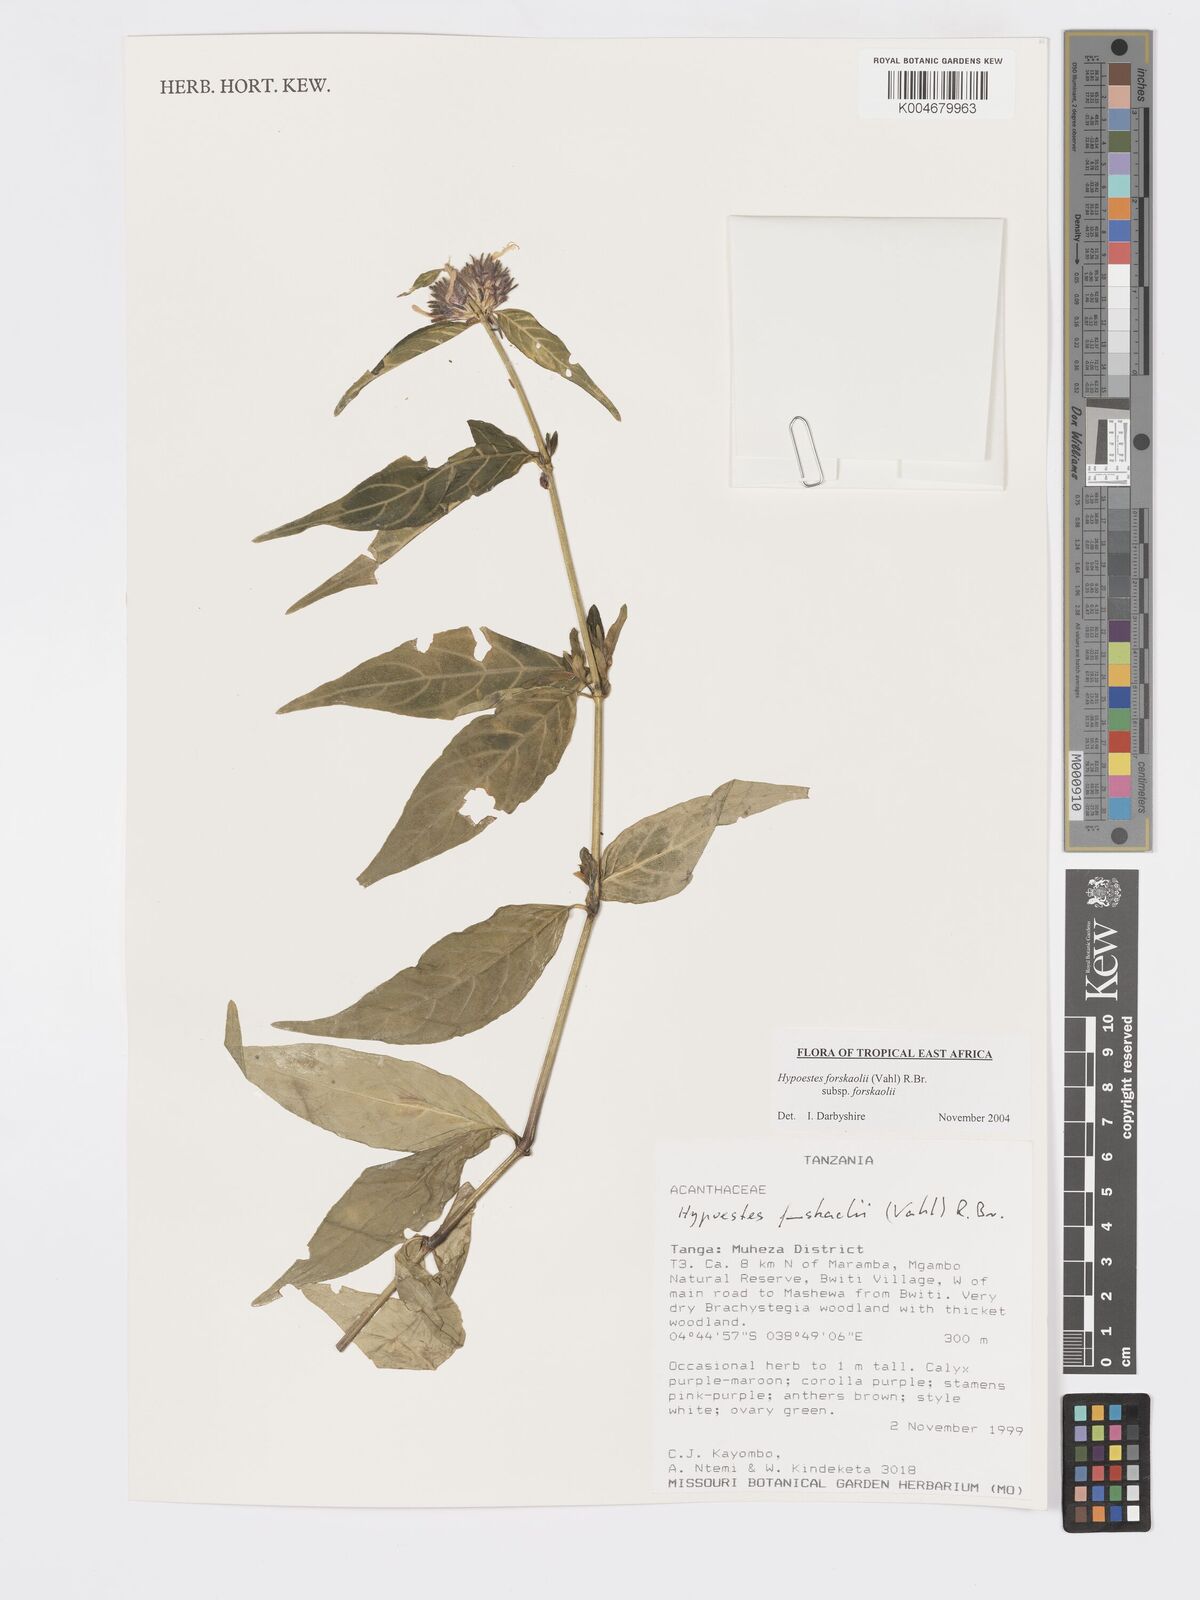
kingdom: Plantae
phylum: Tracheophyta
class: Magnoliopsida
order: Lamiales
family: Acanthaceae
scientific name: Acanthaceae
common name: Acanthaceae
